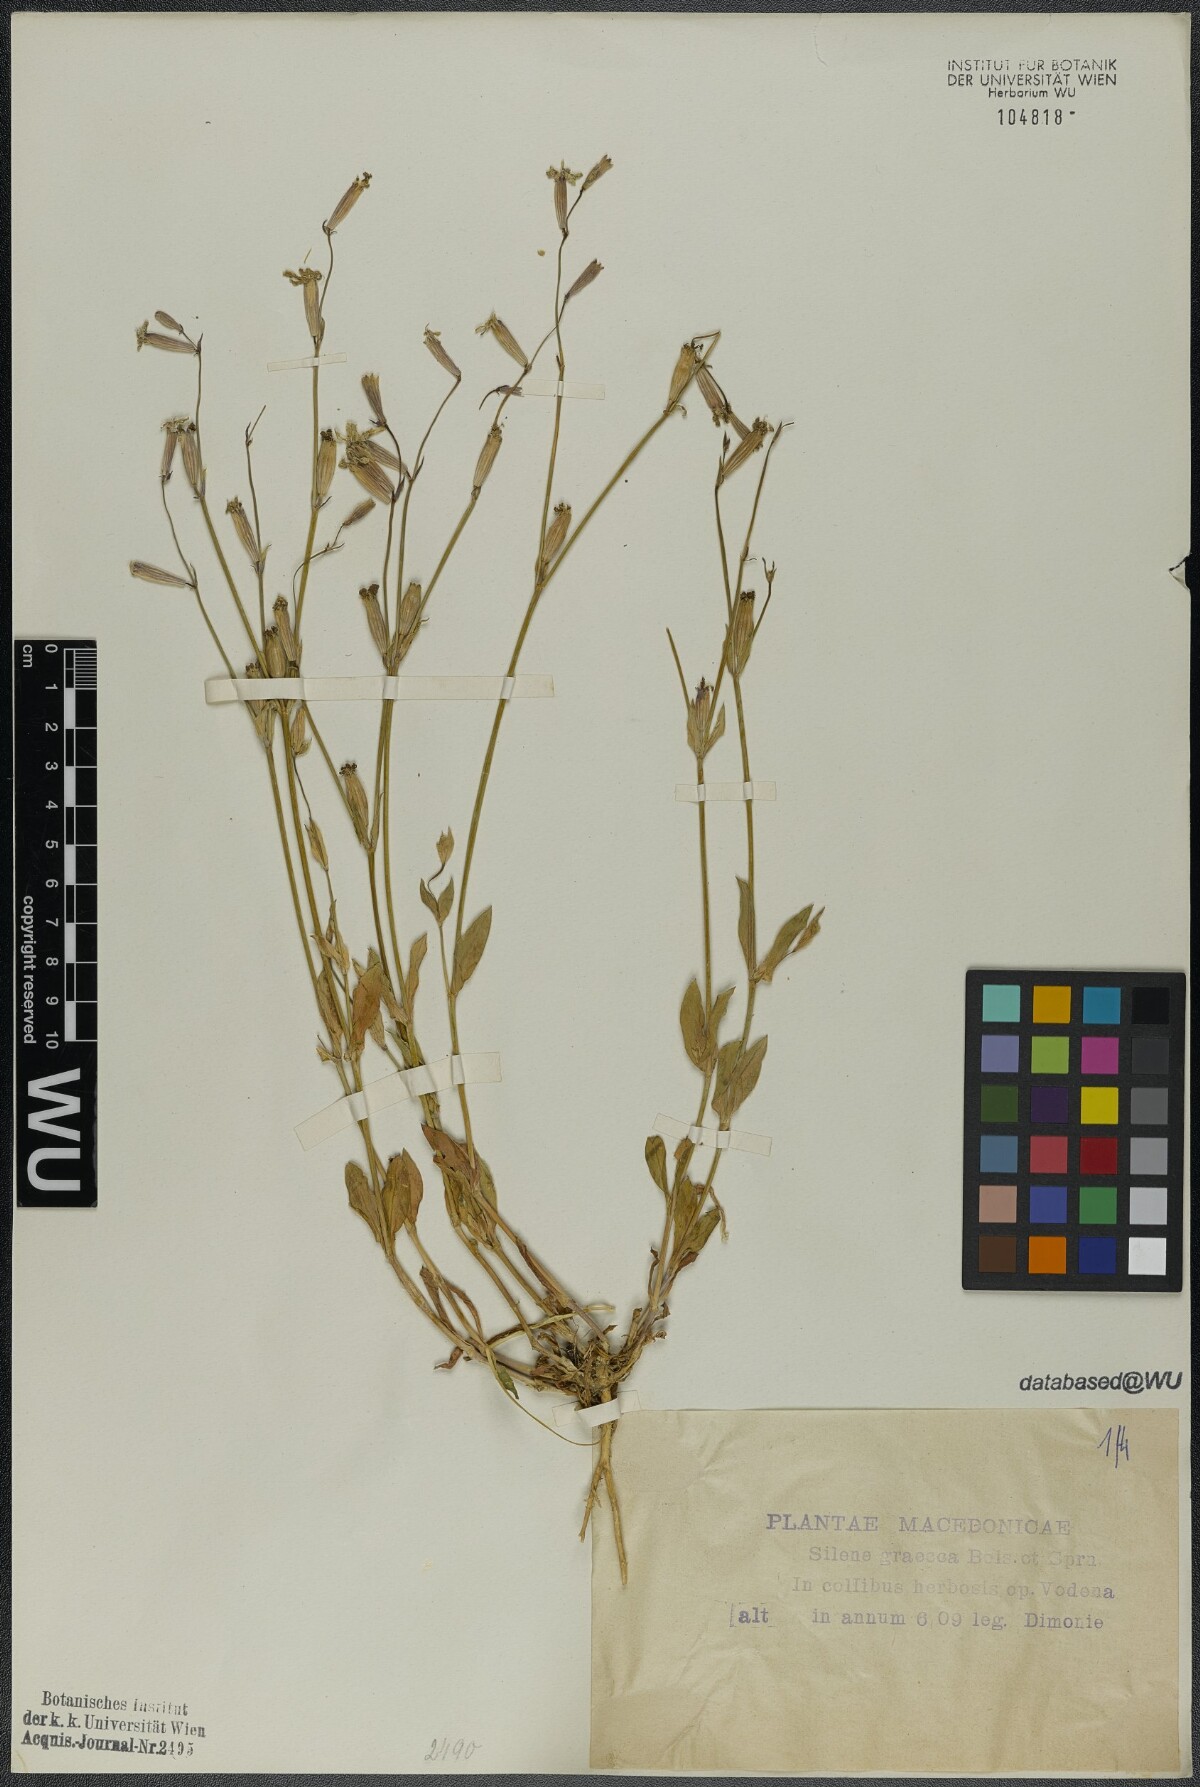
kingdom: Plantae
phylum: Tracheophyta
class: Magnoliopsida
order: Caryophyllales
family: Caryophyllaceae
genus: Silene
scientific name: Silene graeca
